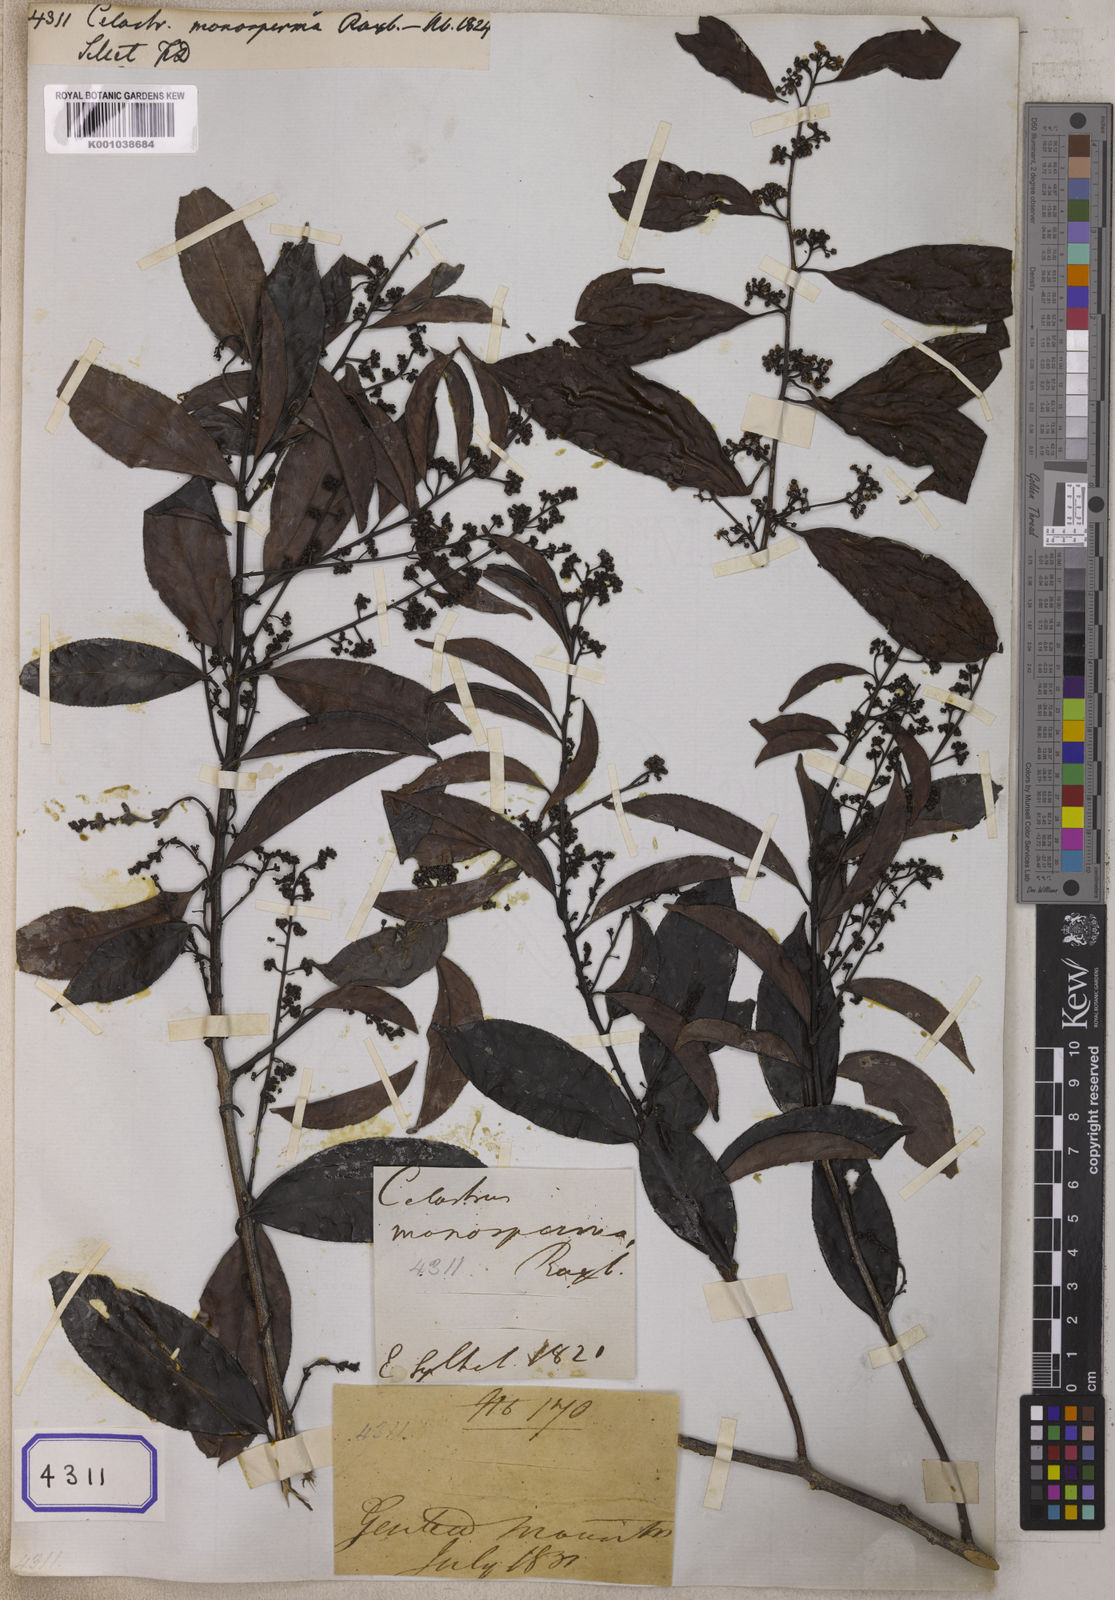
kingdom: Plantae
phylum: Tracheophyta
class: Magnoliopsida
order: Celastrales
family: Celastraceae
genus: Celastrus
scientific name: Celastrus monospermus
